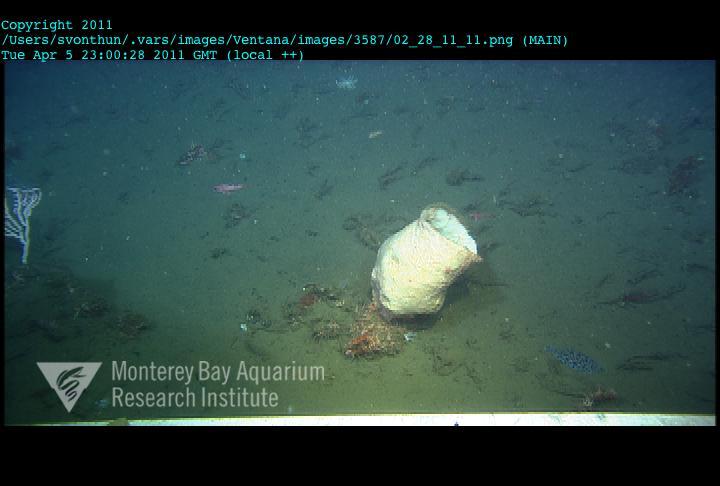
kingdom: Animalia
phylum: Porifera
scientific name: Porifera
